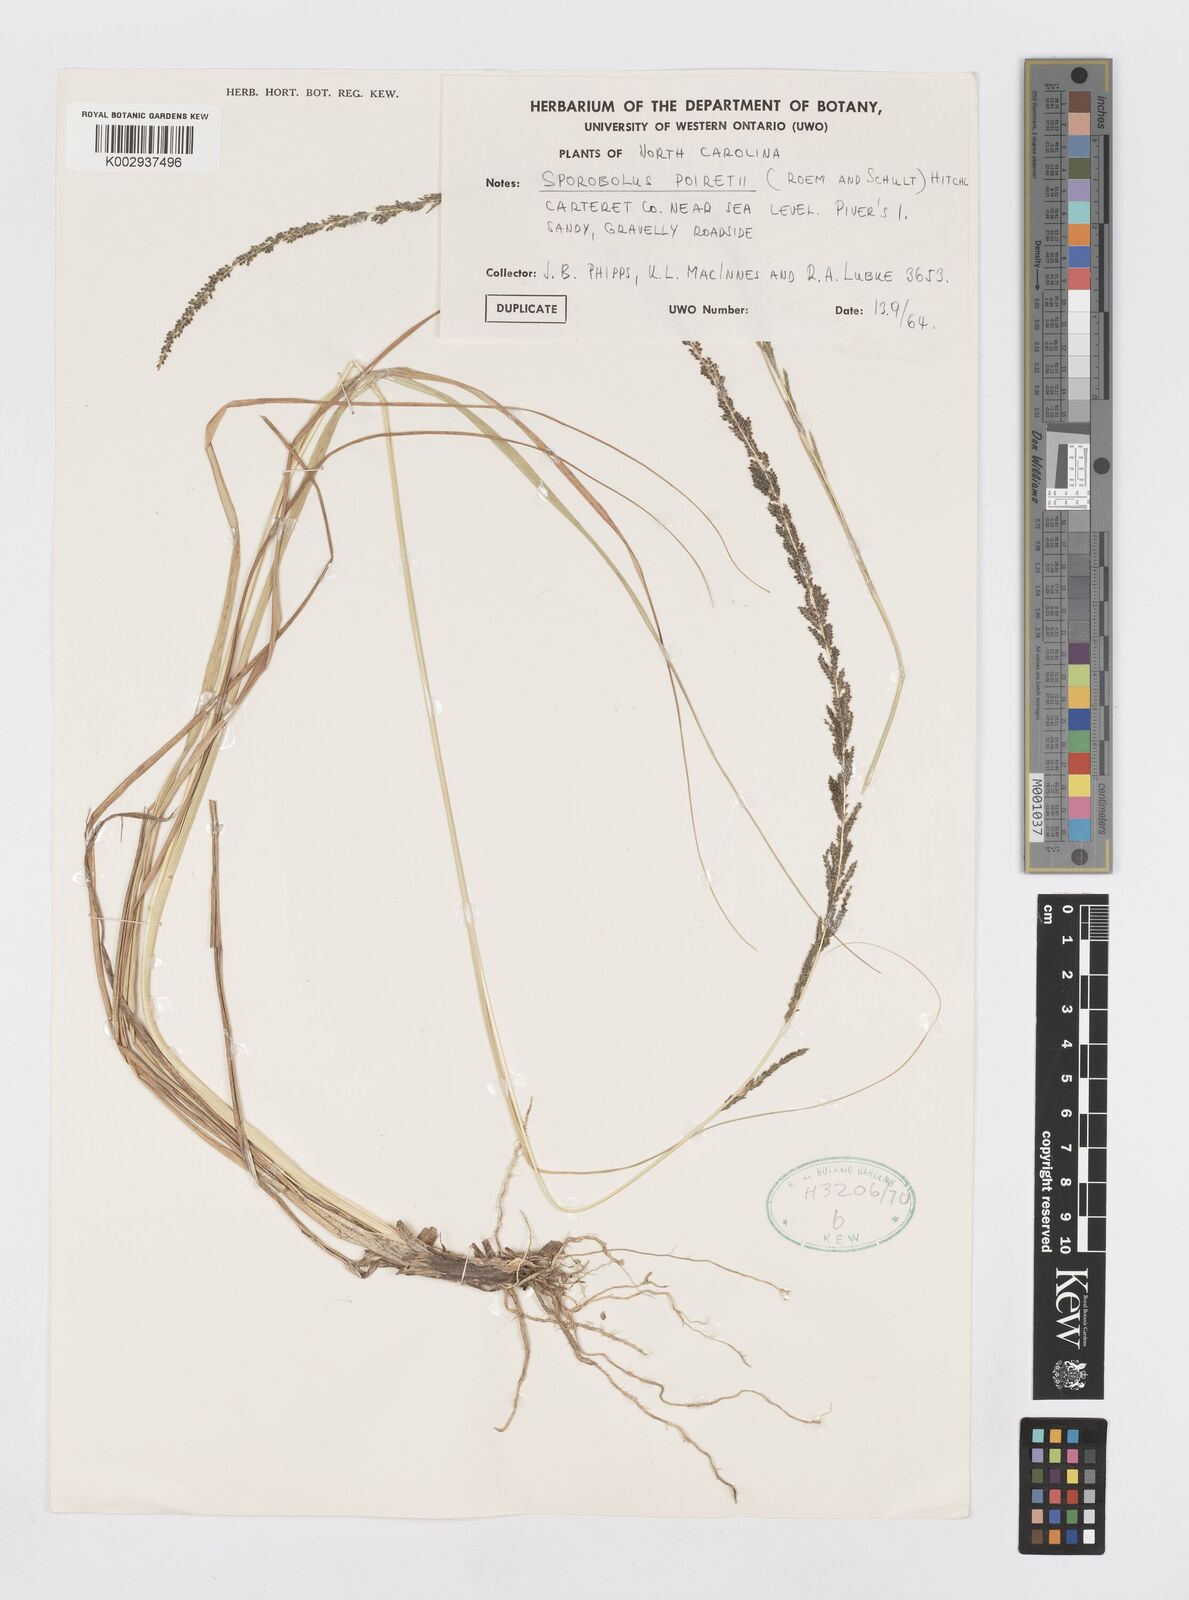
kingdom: Plantae
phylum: Tracheophyta
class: Liliopsida
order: Poales
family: Poaceae
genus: Sporobolus
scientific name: Sporobolus junceus
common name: Lizard grass
